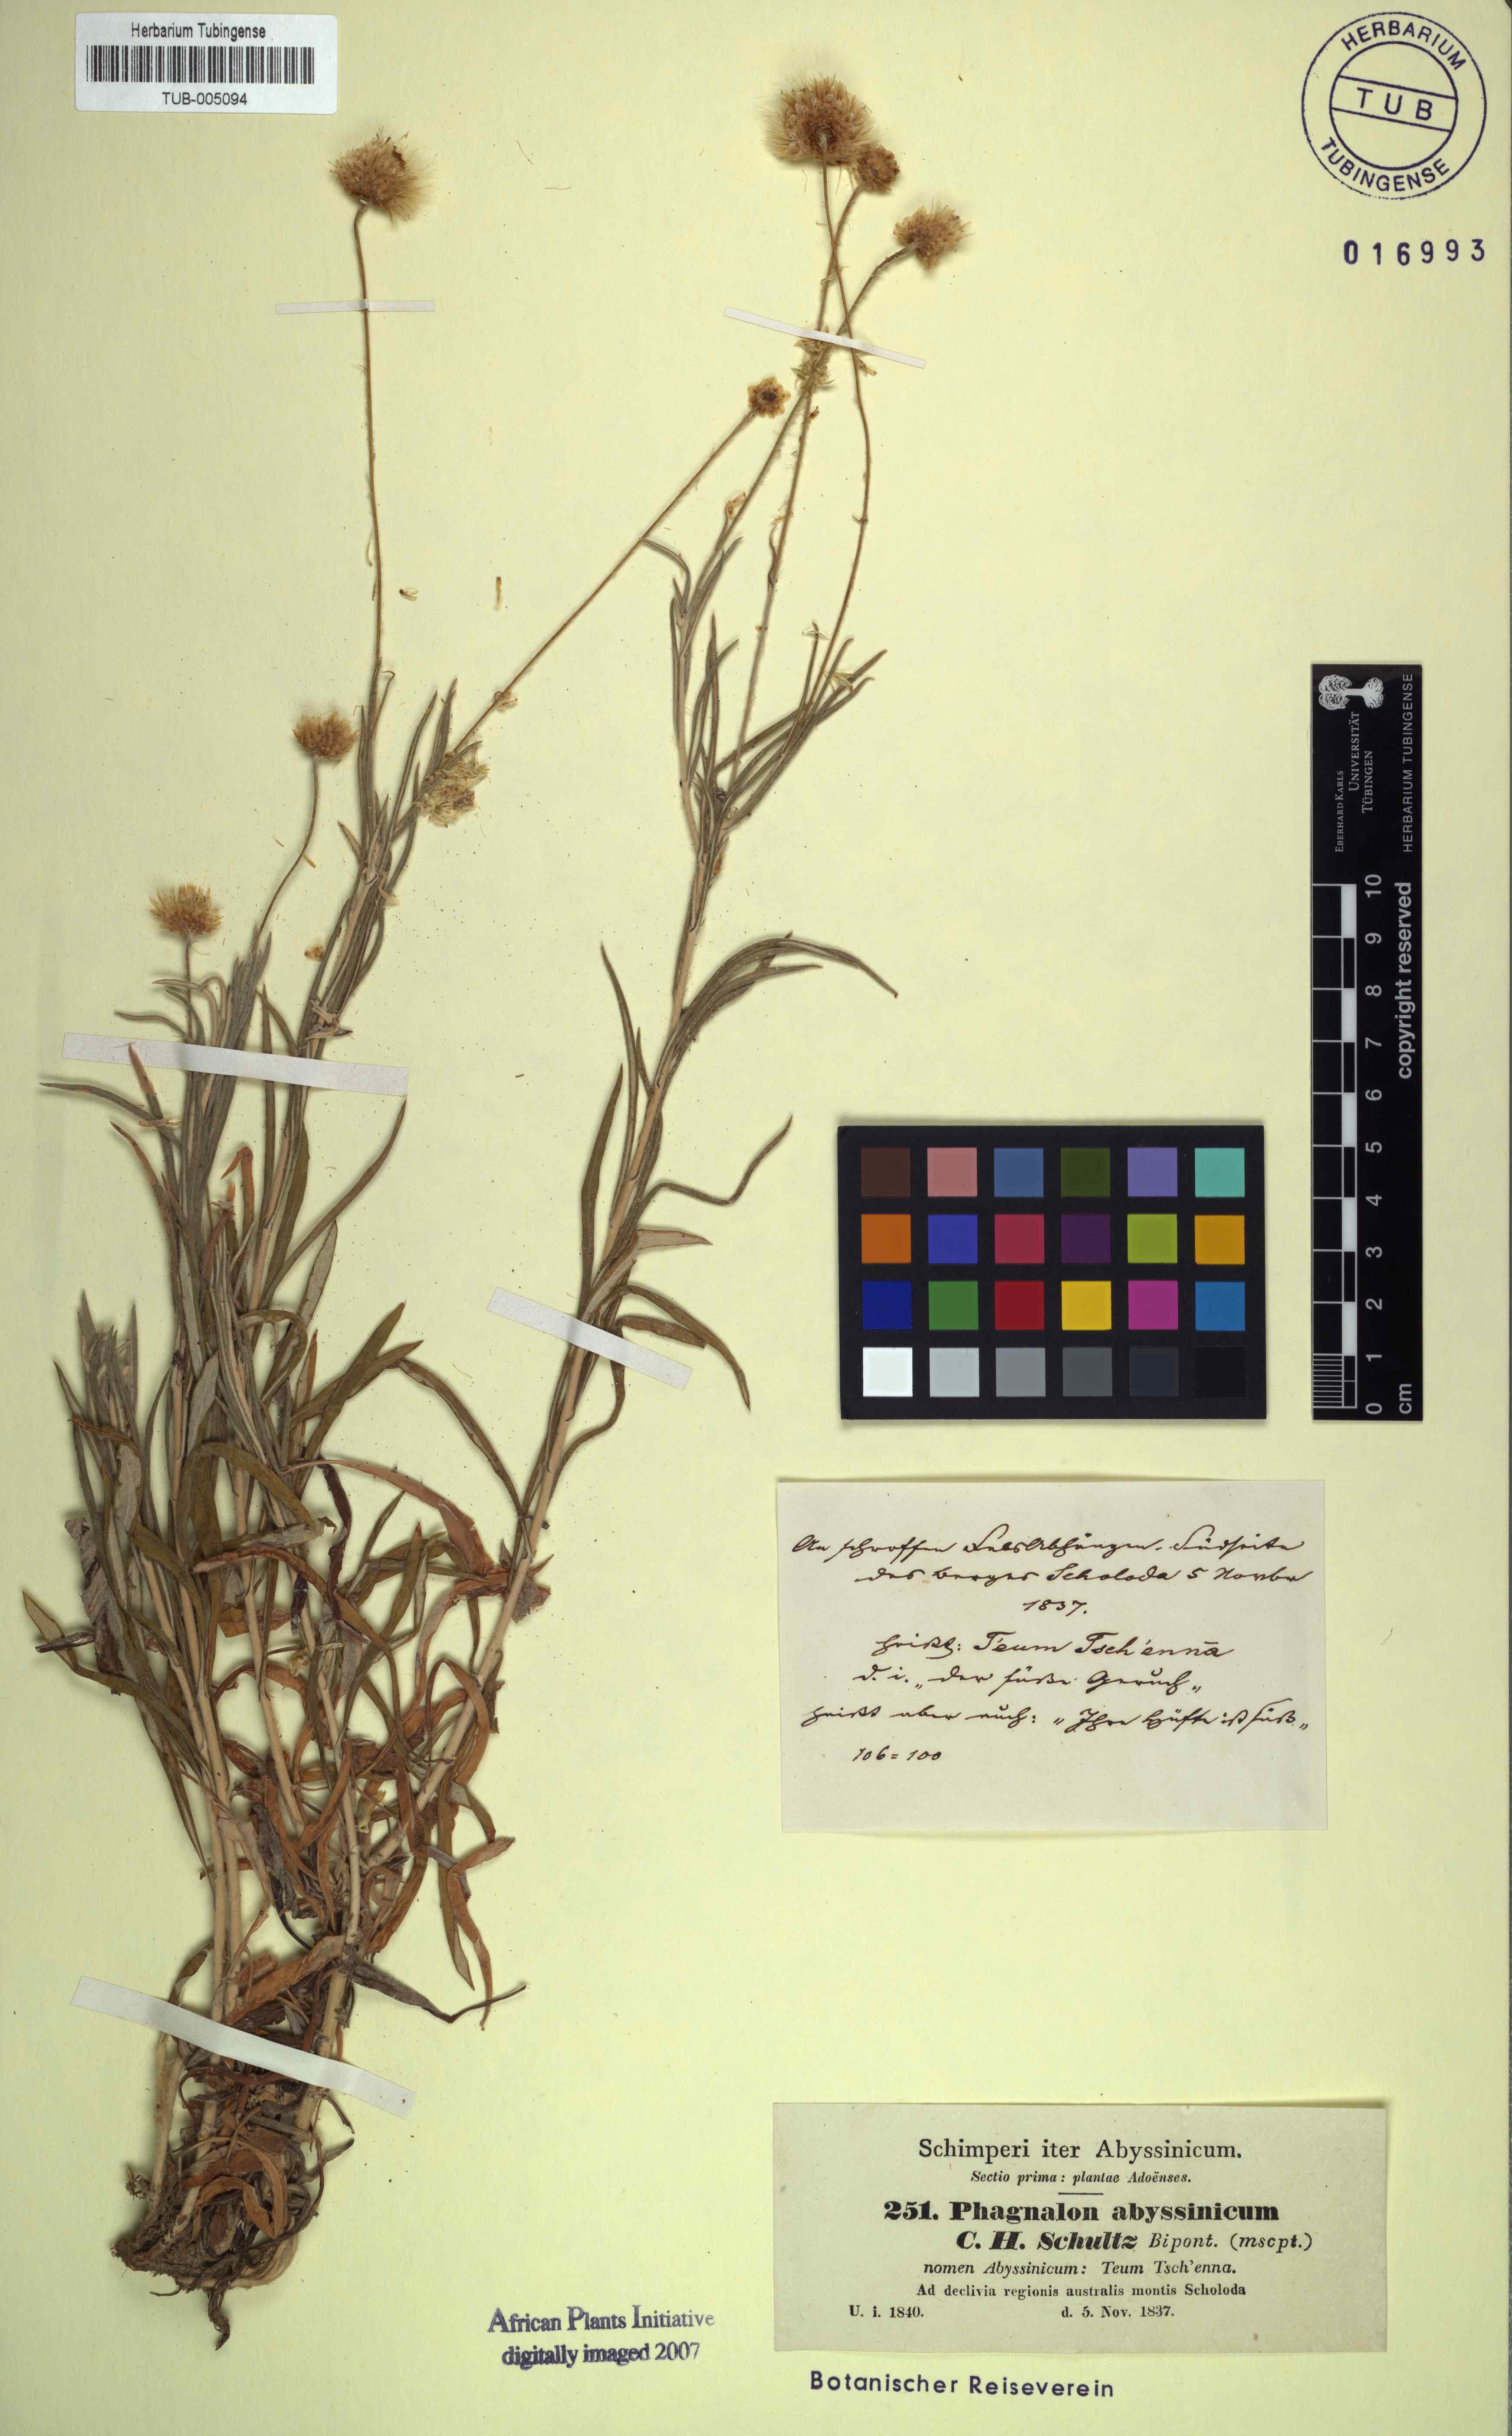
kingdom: Plantae
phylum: Tracheophyta
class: Magnoliopsida
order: Asterales
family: Asteraceae
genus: Phagnalon
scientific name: Phagnalon abyssinicum
